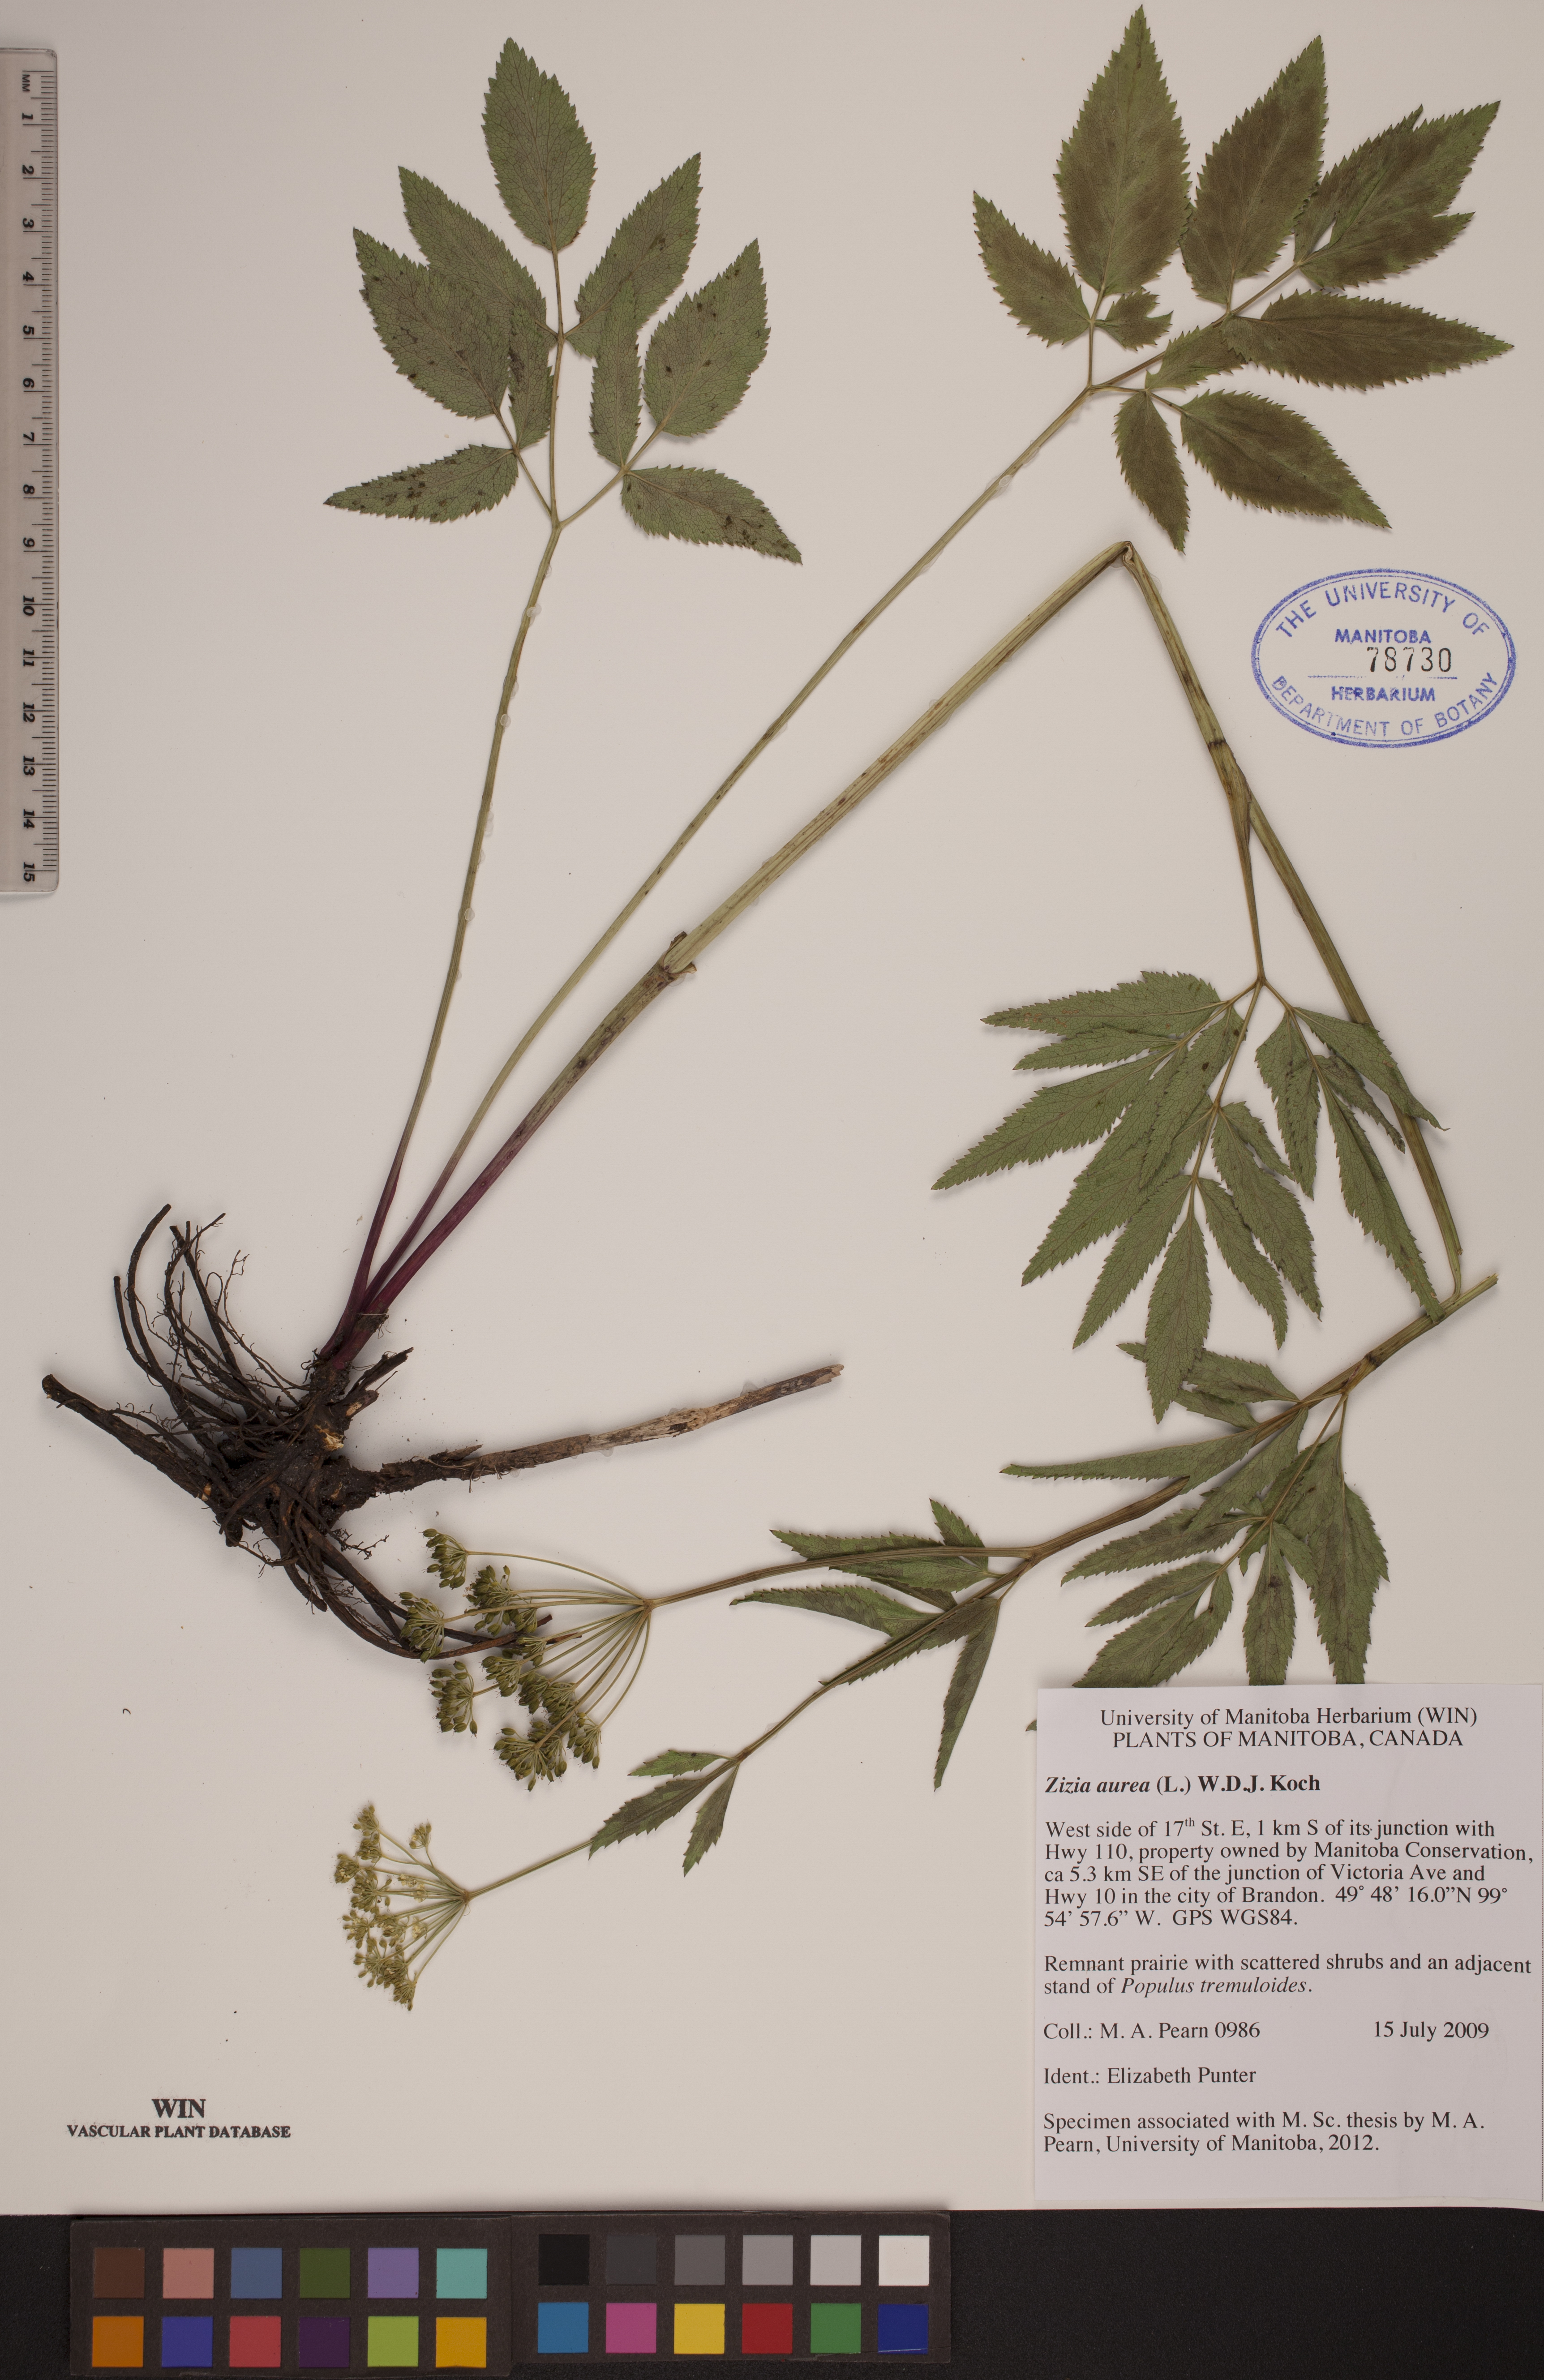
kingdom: Plantae
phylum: Tracheophyta
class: Magnoliopsida
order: Apiales
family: Apiaceae
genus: Zizia
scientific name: Zizia aurea
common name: Golden alexanders
